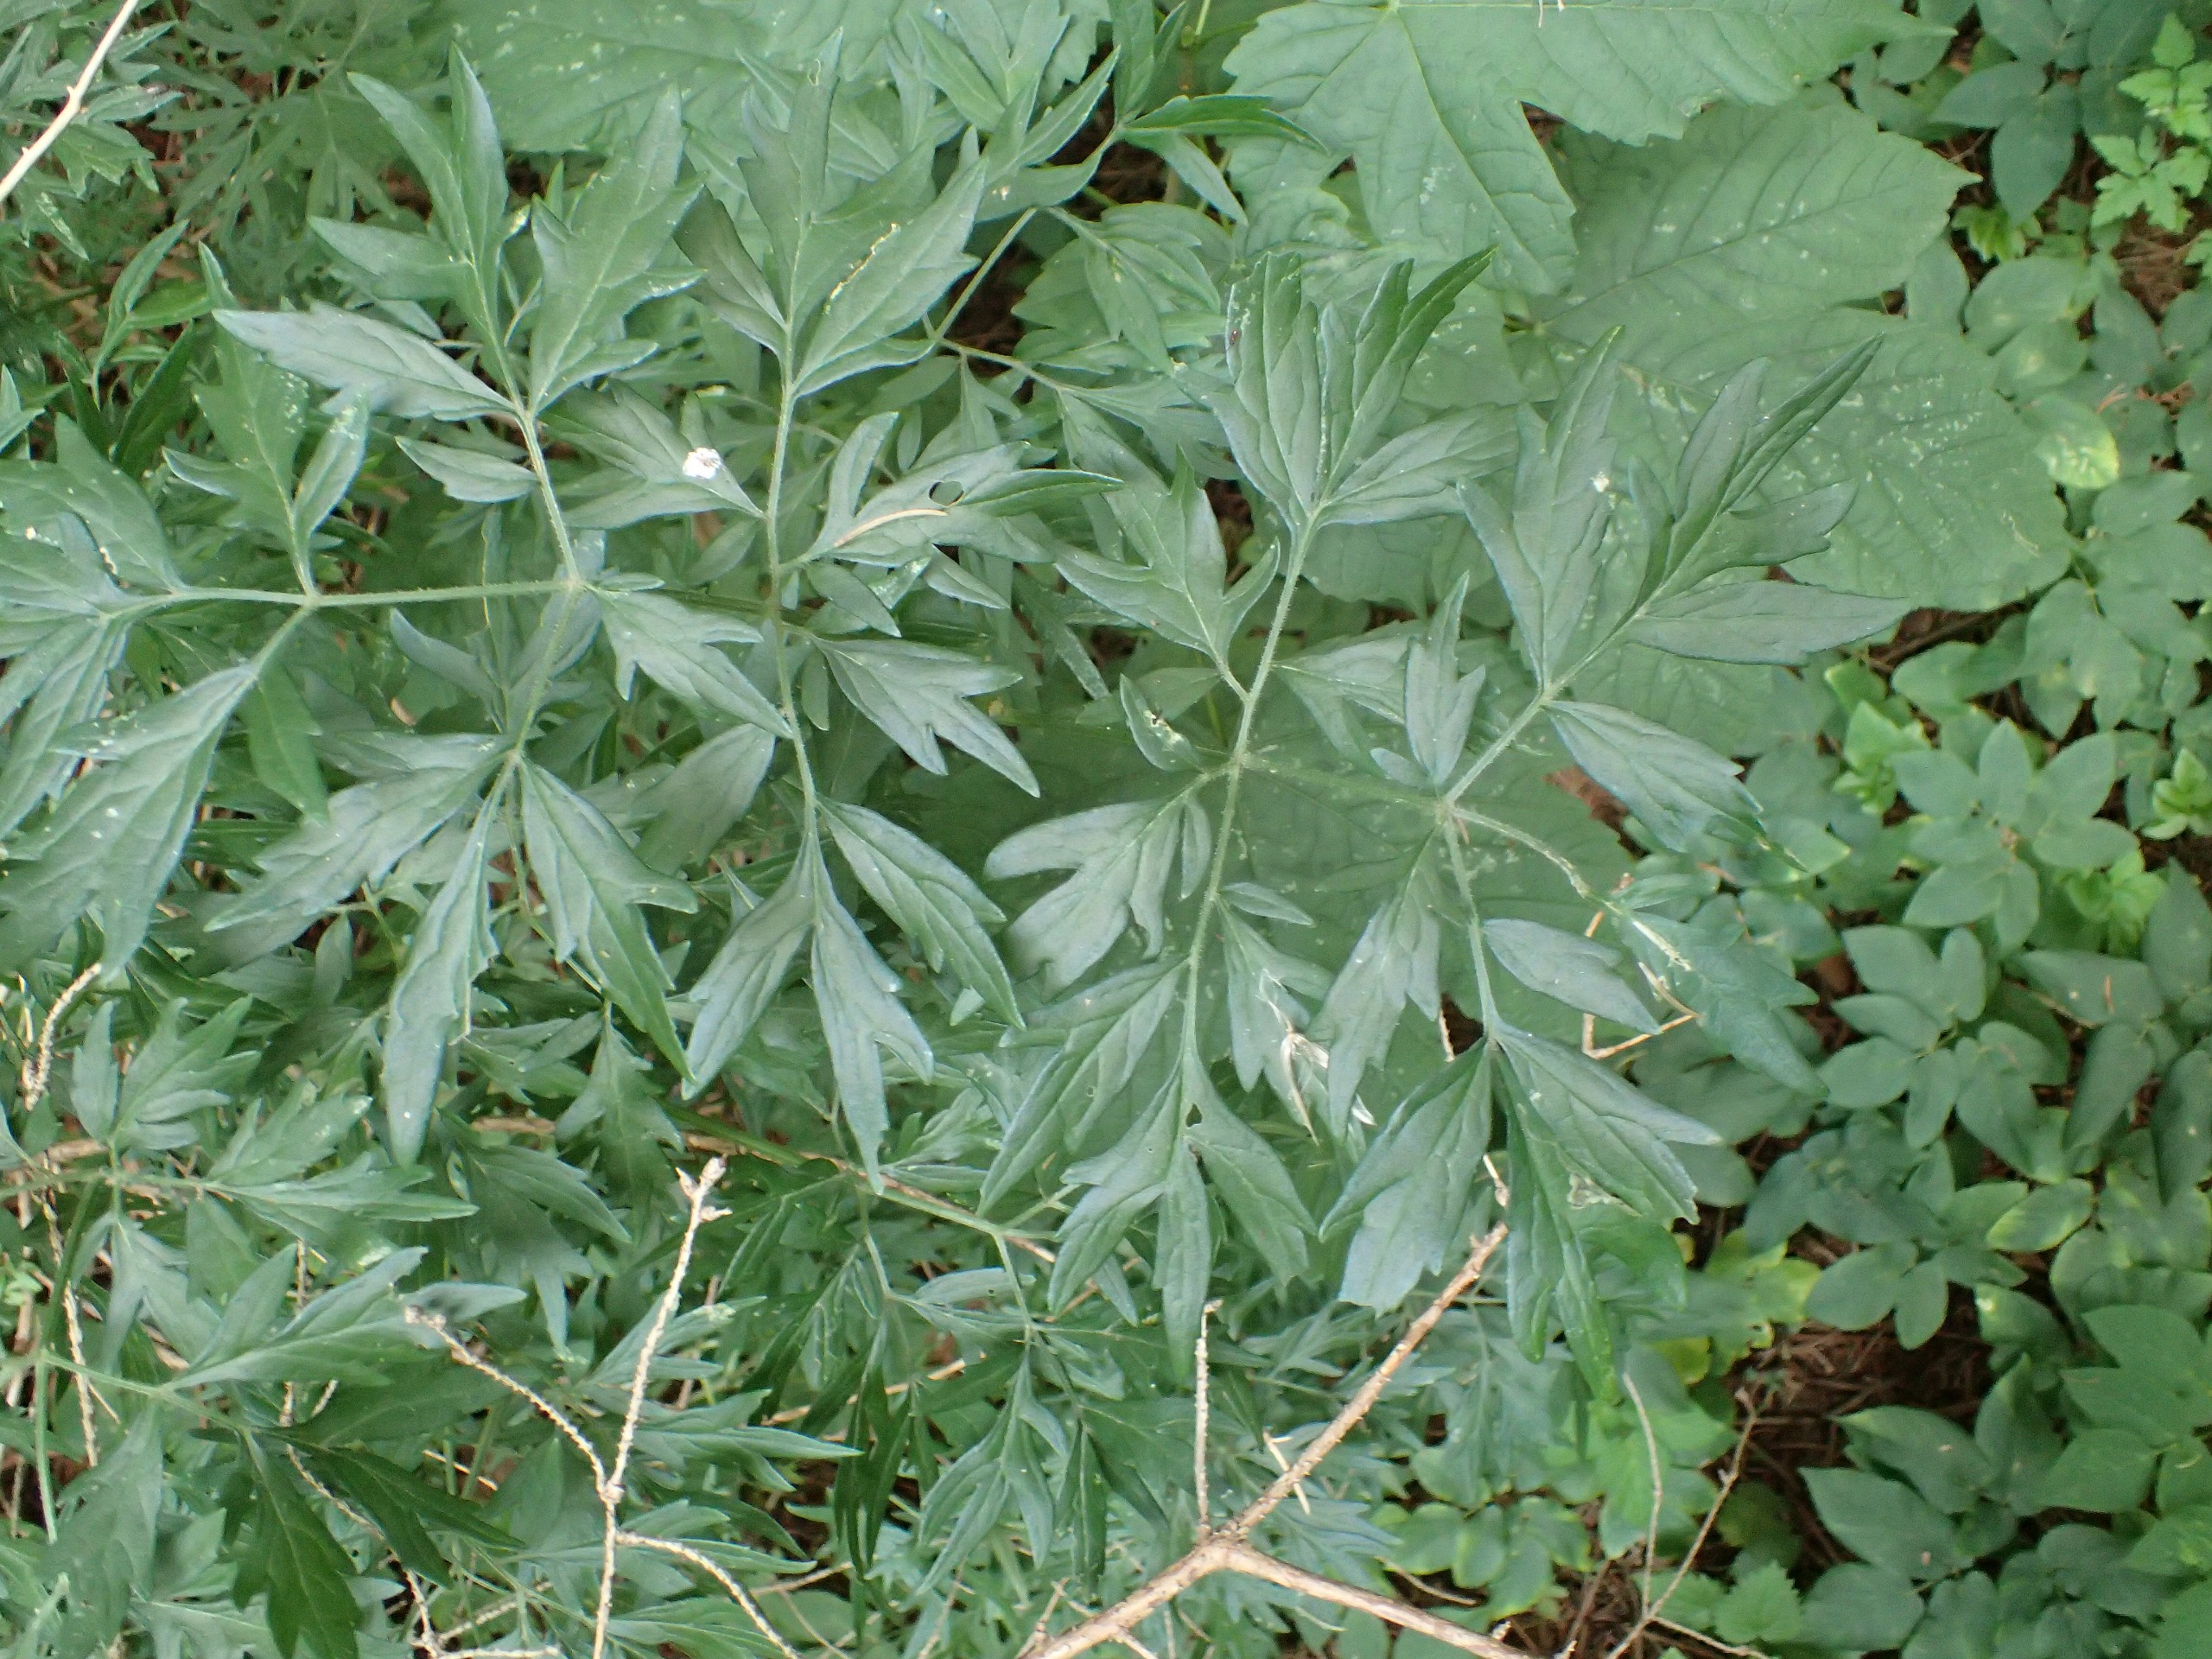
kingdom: Plantae
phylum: Tracheophyta
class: Magnoliopsida
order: Dipsacales
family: Viburnaceae
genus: Sambucus
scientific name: Sambucus nigra
